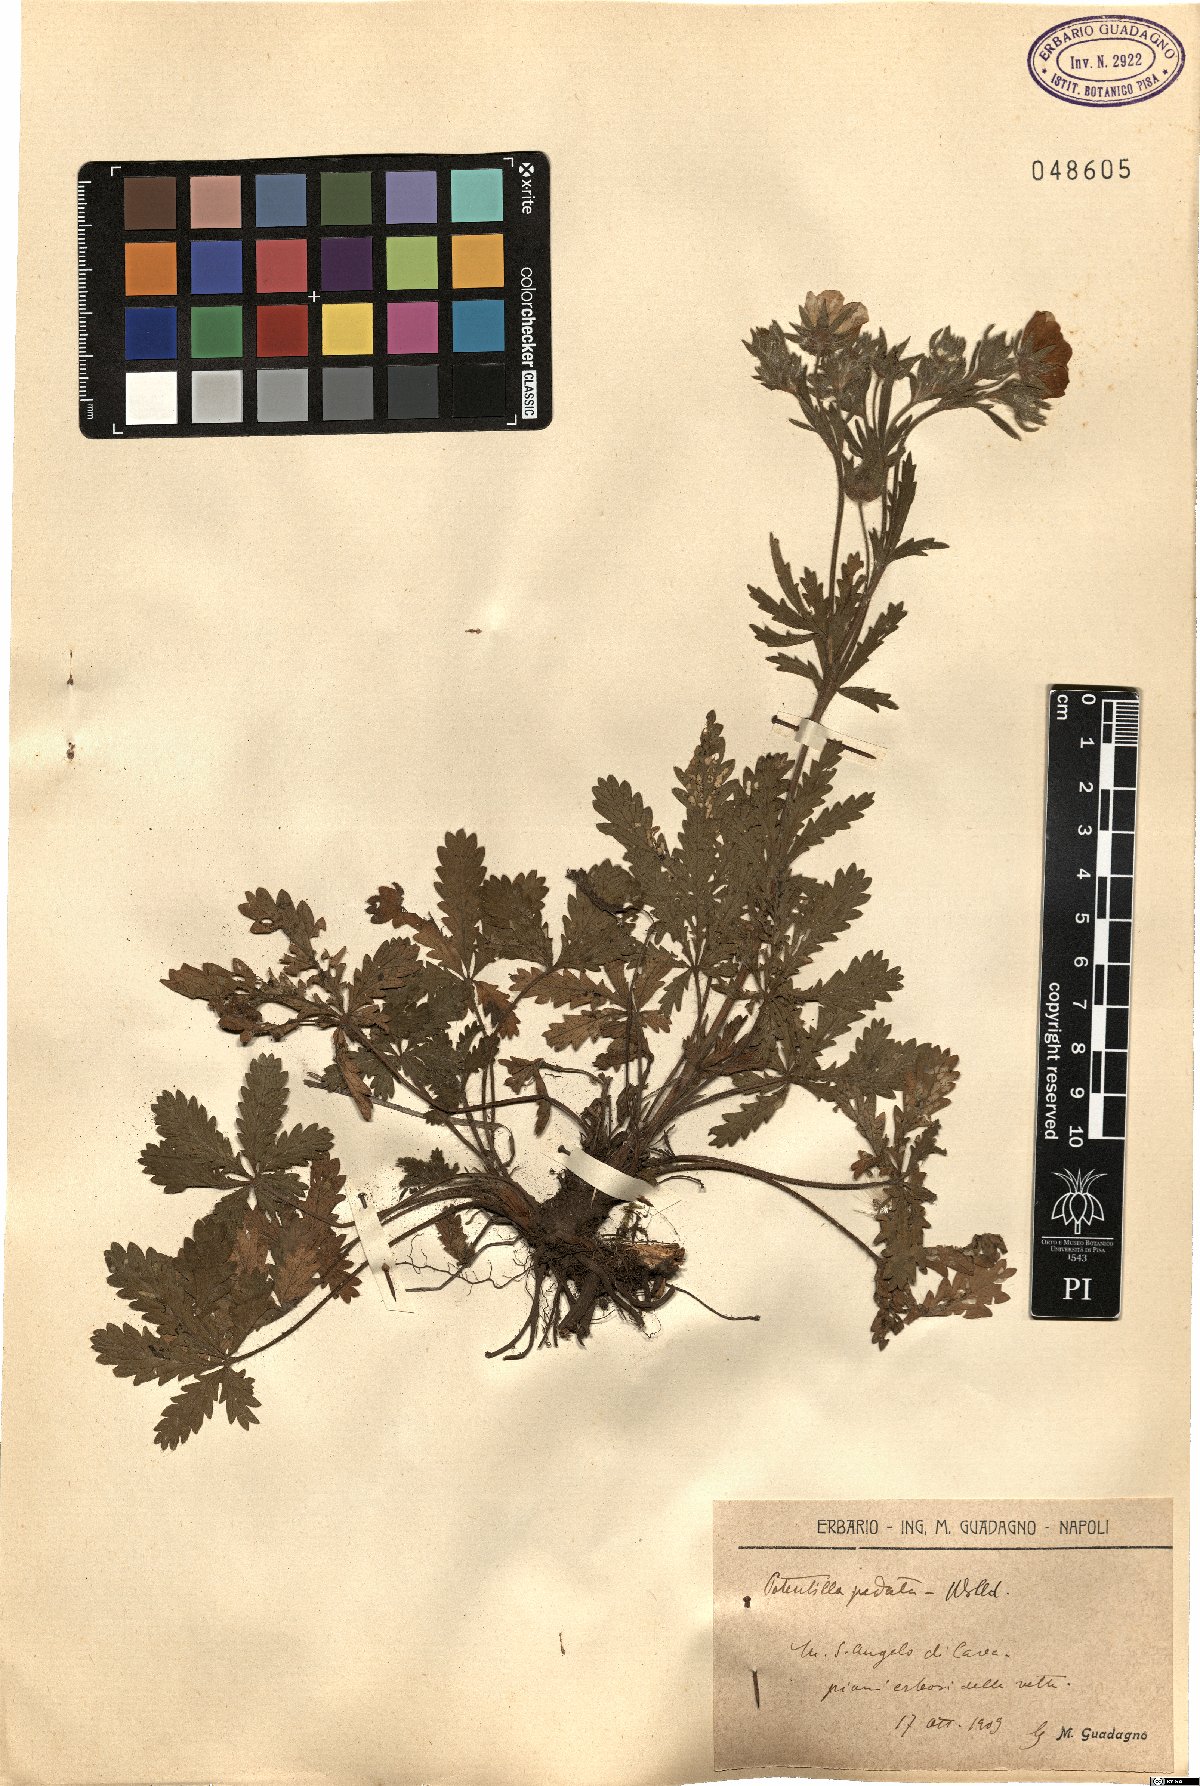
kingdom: Plantae
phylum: Tracheophyta
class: Magnoliopsida
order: Rosales
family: Rosaceae
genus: Potentilla
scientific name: Potentilla pedata
